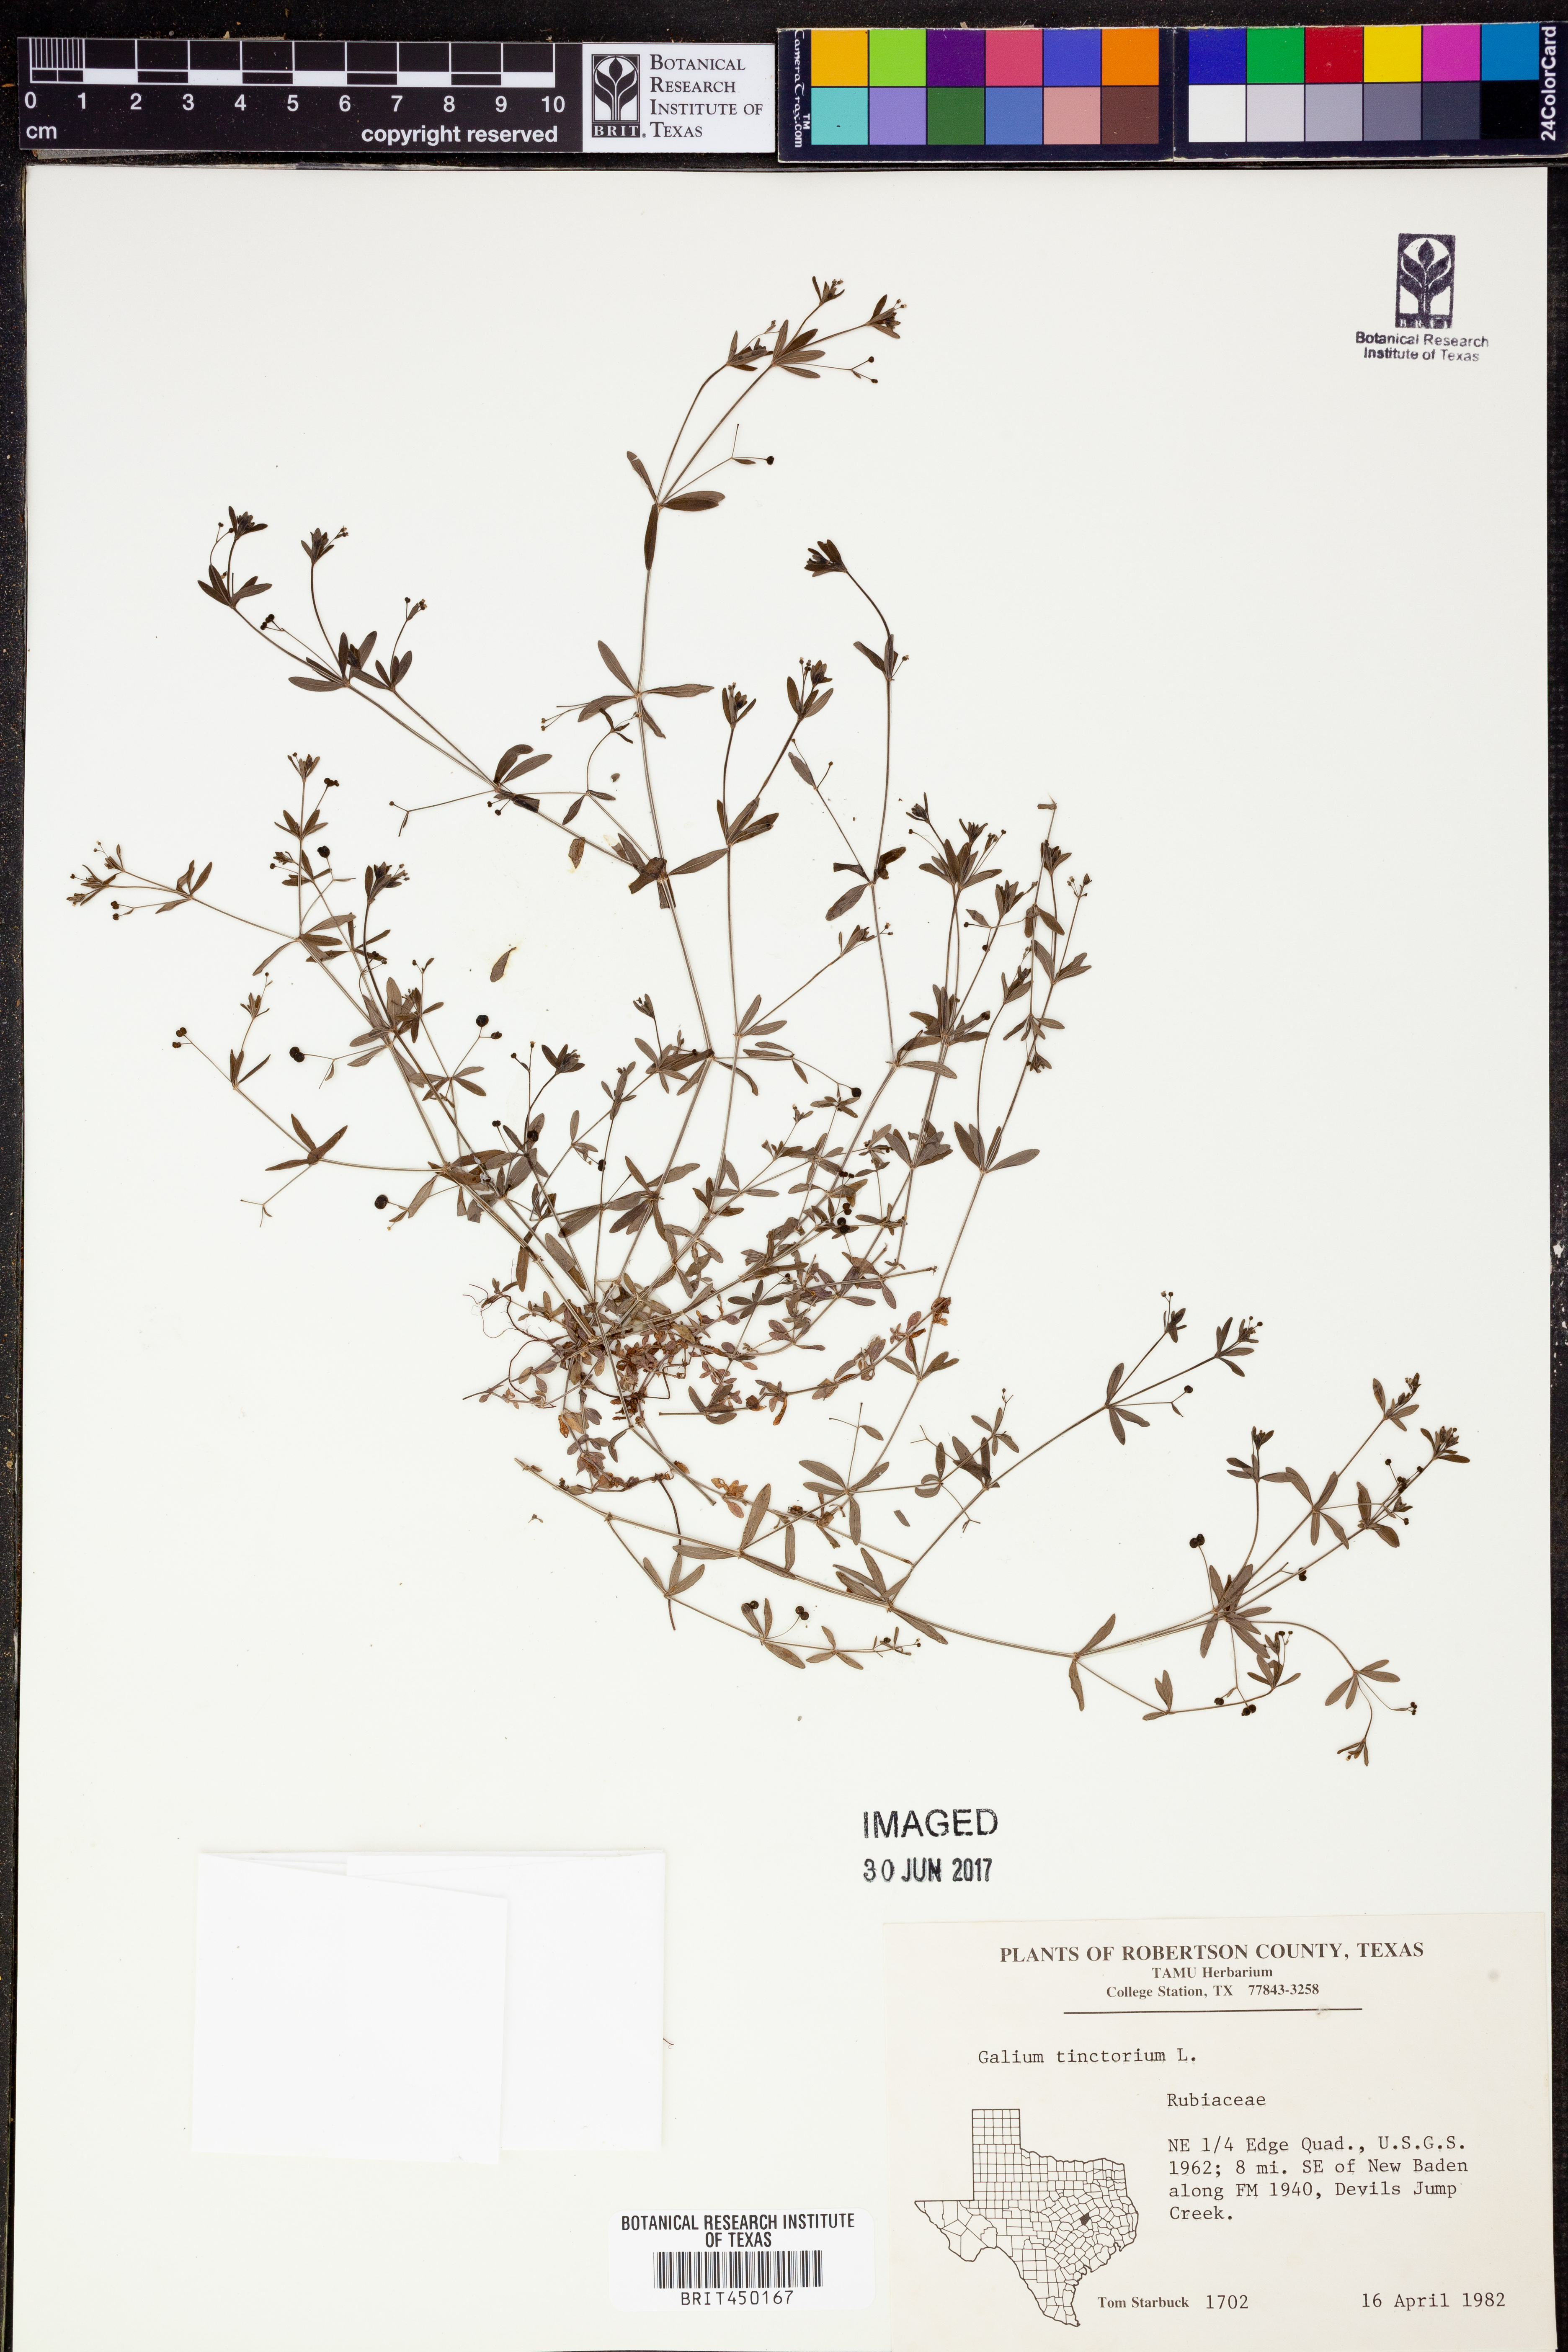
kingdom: Plantae
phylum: Tracheophyta
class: Magnoliopsida
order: Gentianales
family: Rubiaceae
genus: Asperula
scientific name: Asperula tinctoria
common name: Dyer's woodruff
